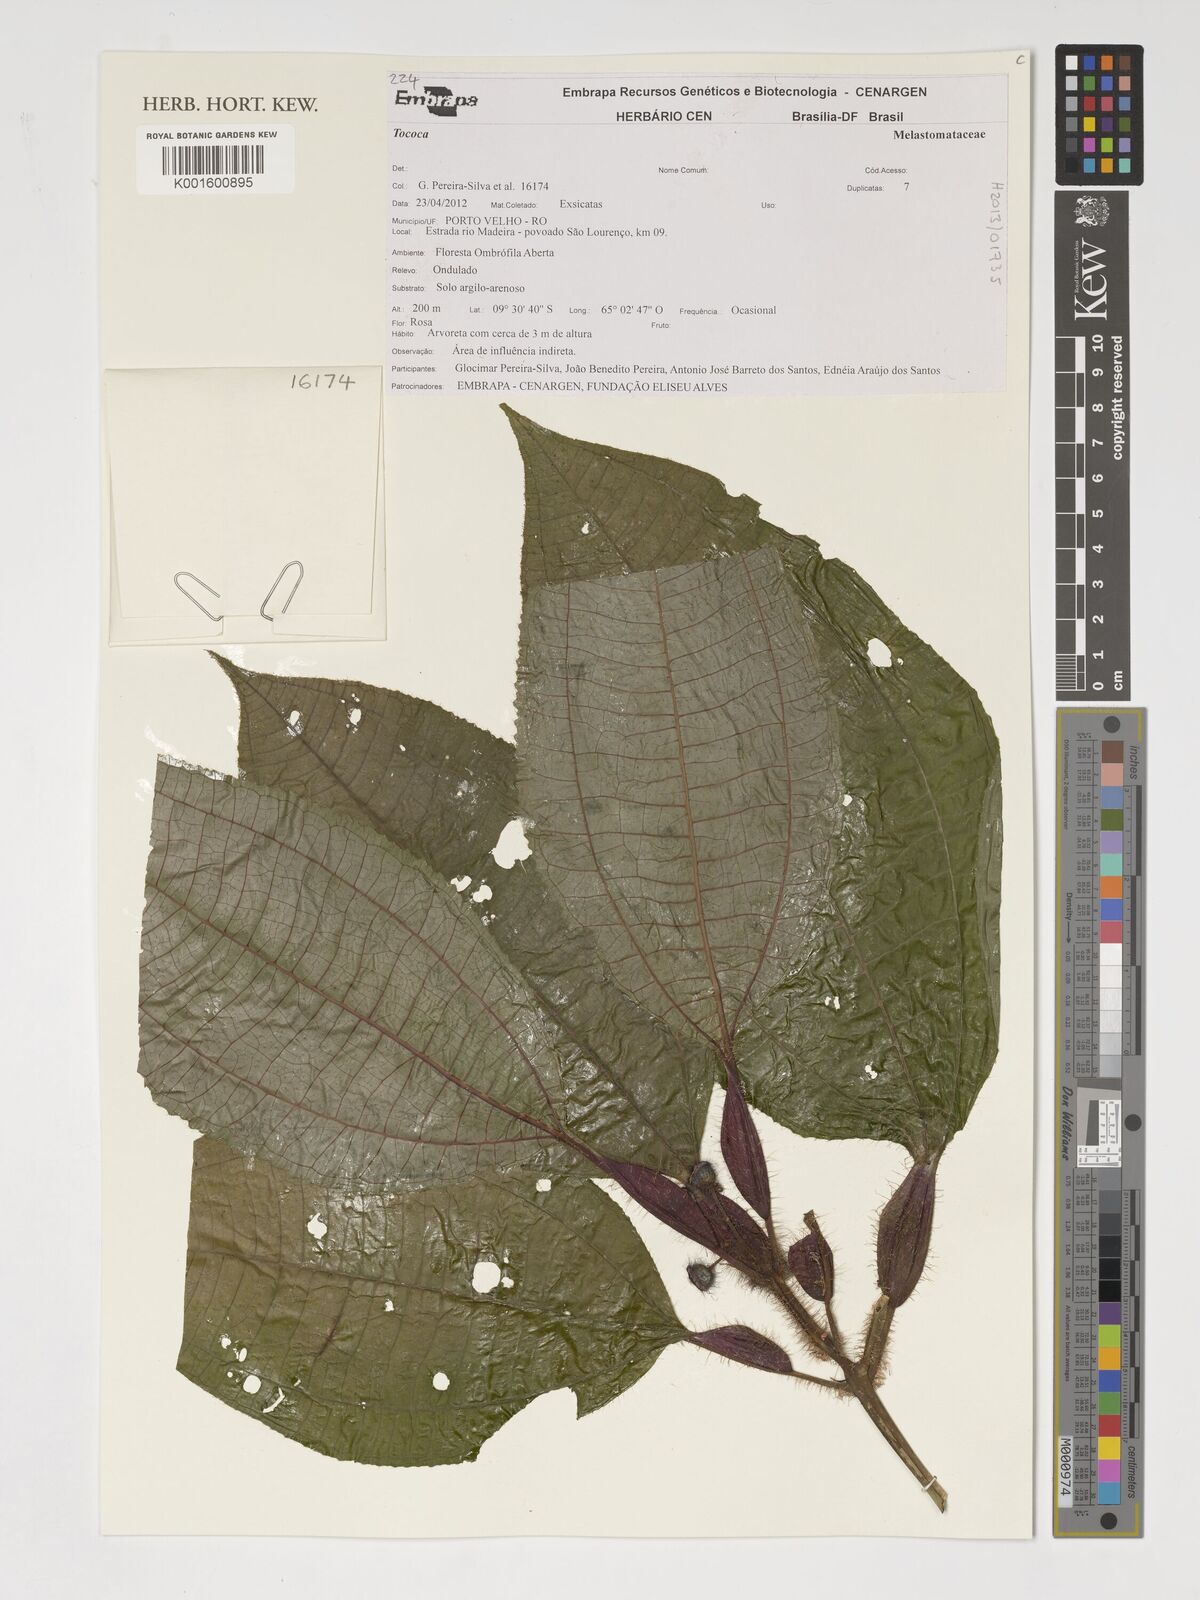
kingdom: Plantae
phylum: Tracheophyta
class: Magnoliopsida
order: Myrtales
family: Melastomataceae
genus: Miconia
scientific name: Miconia bullifera
